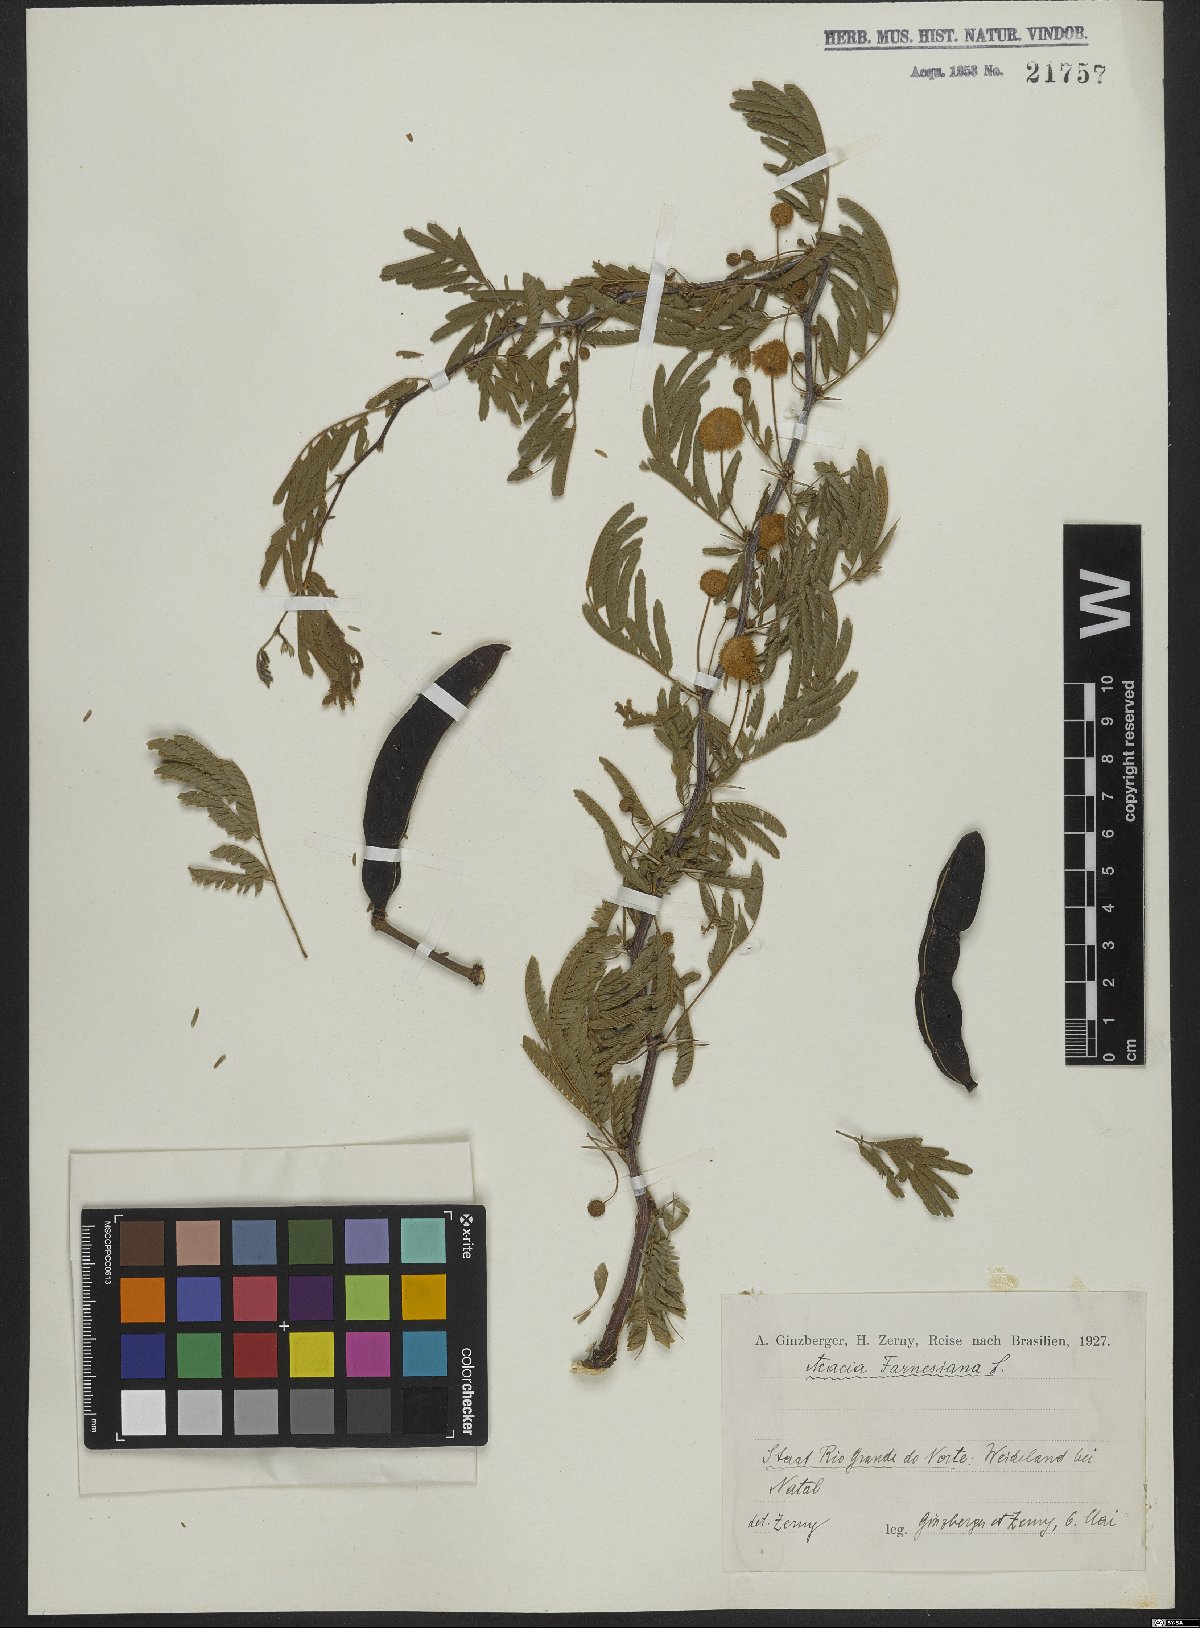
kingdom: Plantae
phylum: Tracheophyta
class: Magnoliopsida
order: Fabales
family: Fabaceae
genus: Vachellia
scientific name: Vachellia farnesiana
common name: Sweet acacia
